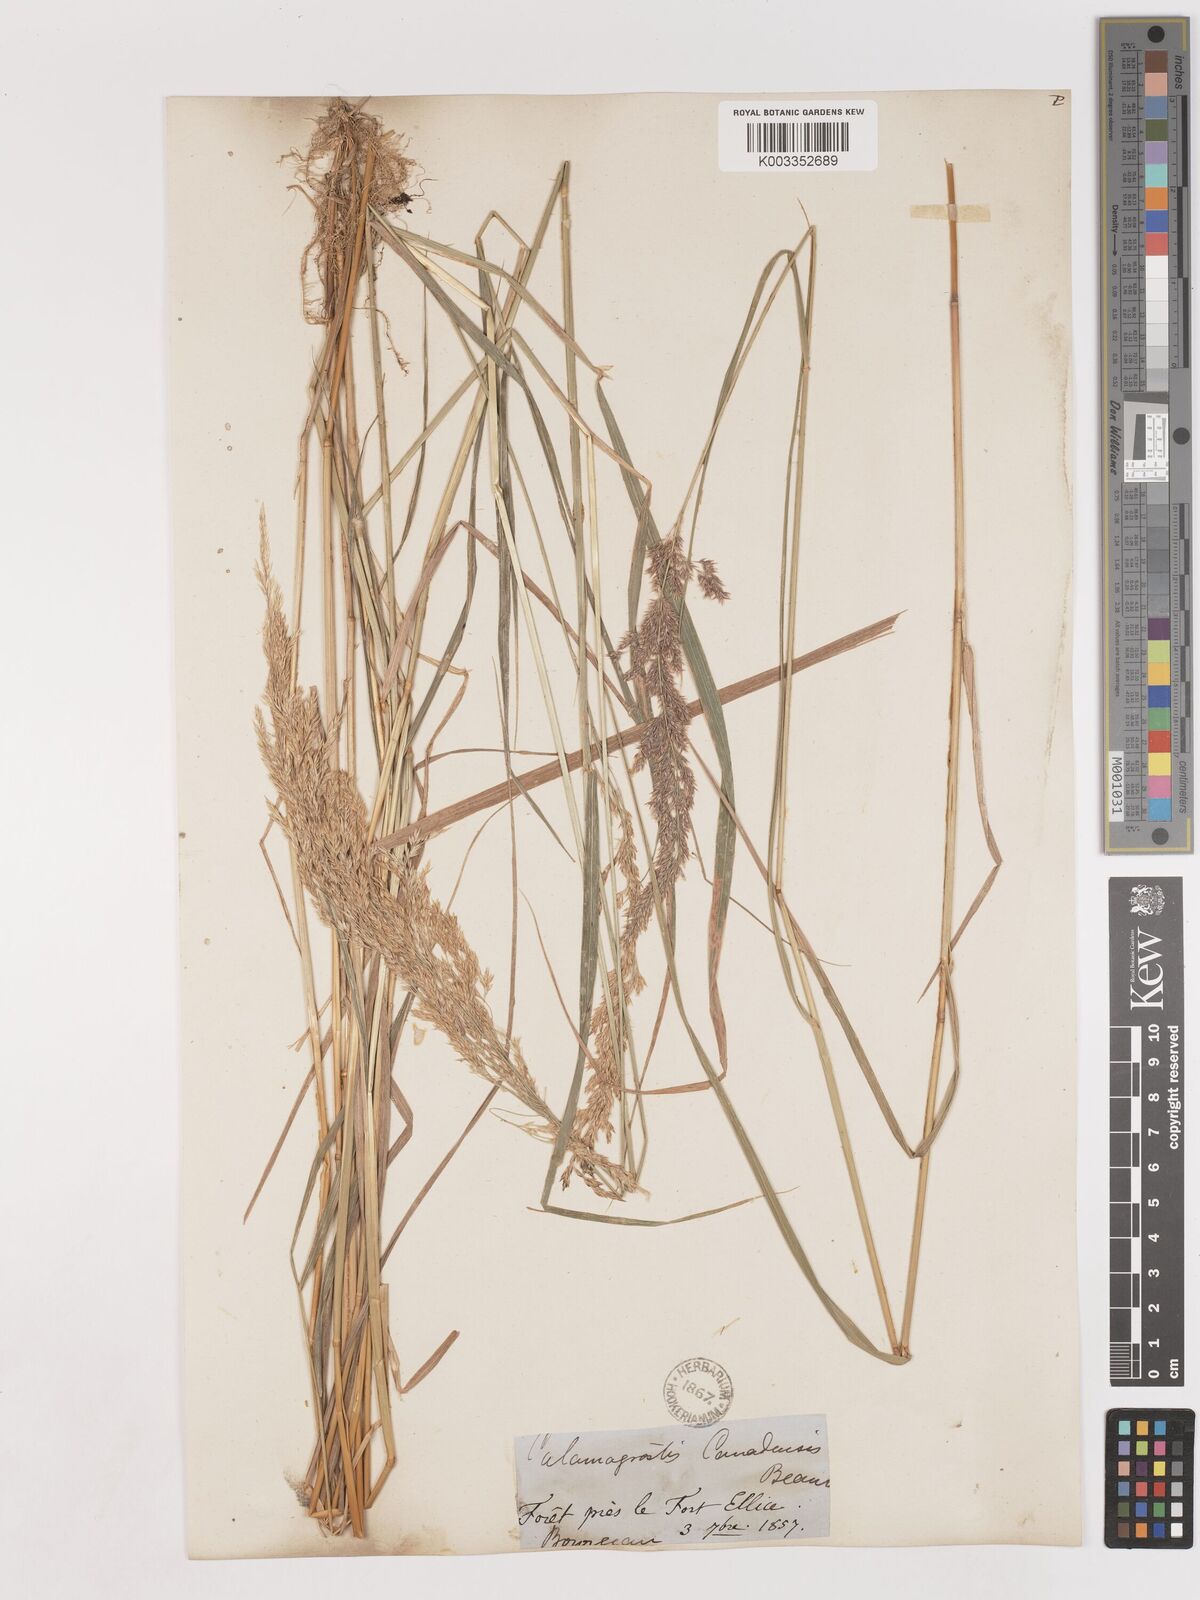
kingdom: Plantae
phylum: Tracheophyta
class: Liliopsida
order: Poales
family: Poaceae
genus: Calamagrostis
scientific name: Calamagrostis canadensis
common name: Canada bluejoint
